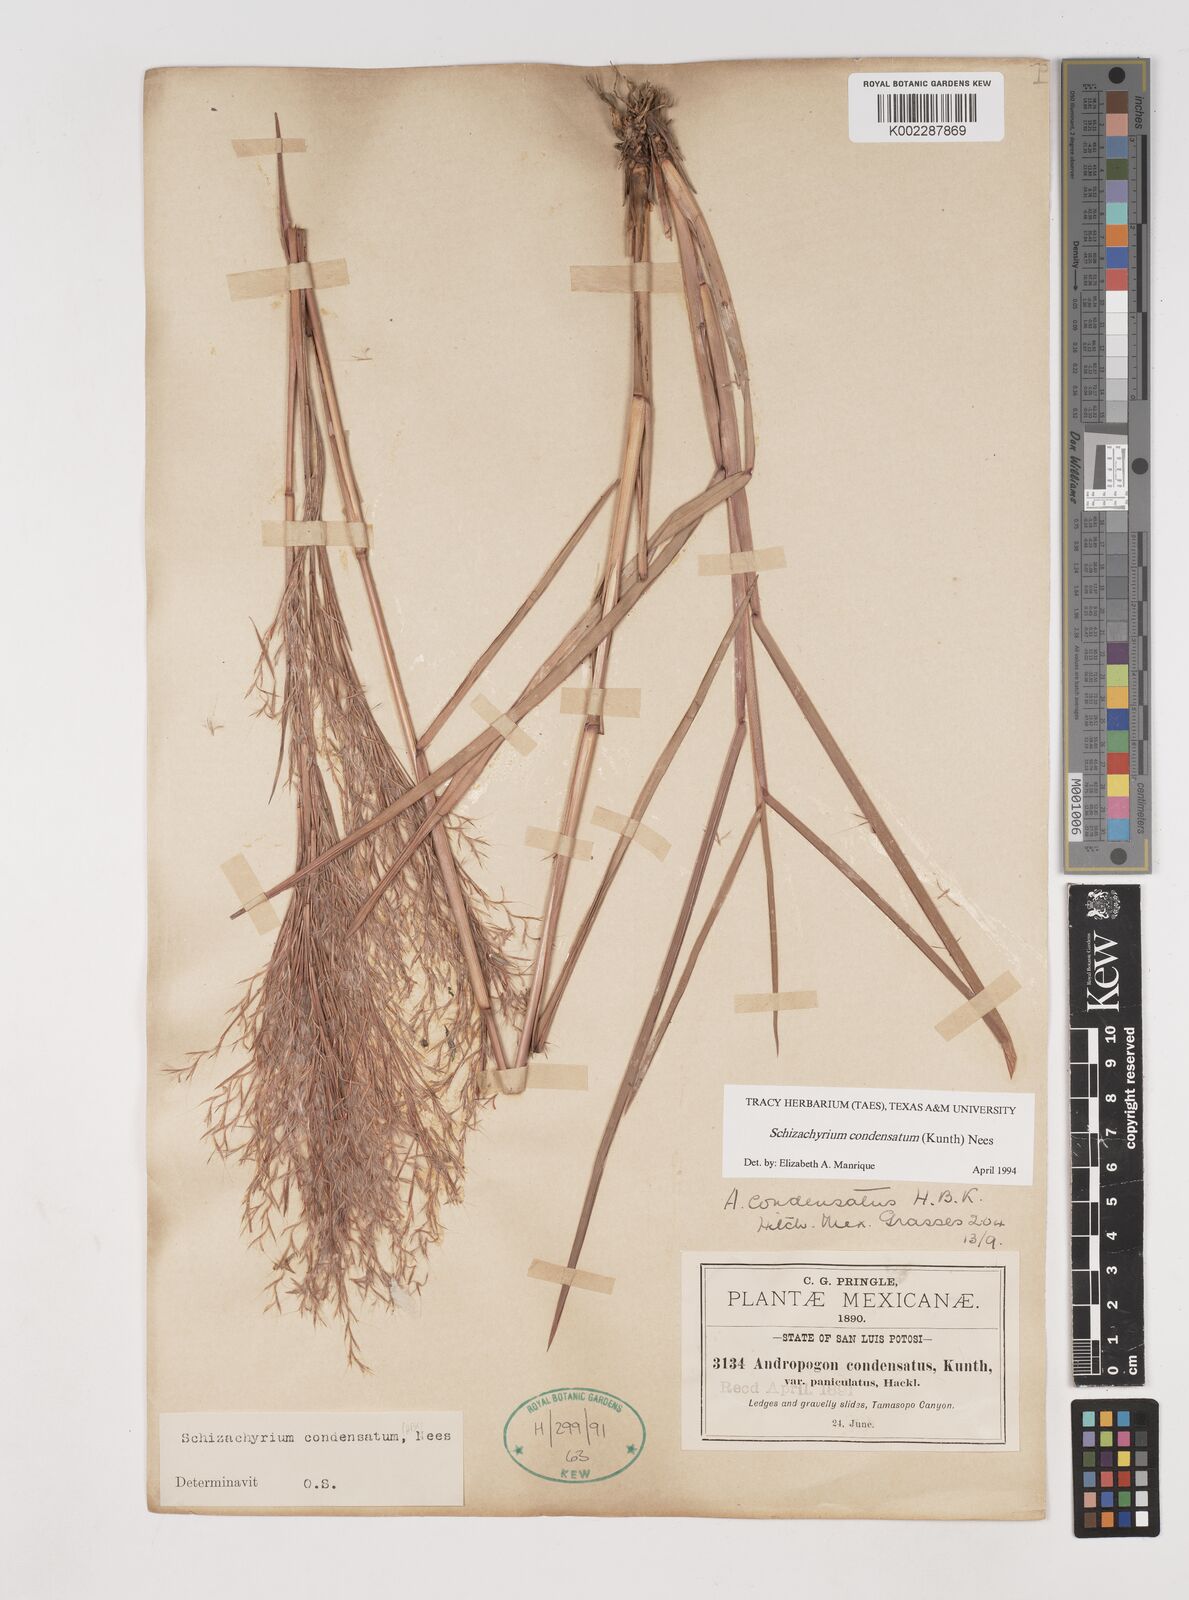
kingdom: Plantae
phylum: Tracheophyta
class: Liliopsida
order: Poales
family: Poaceae
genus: Schizachyrium
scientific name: Schizachyrium condensatum
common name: Bush beardgrass
